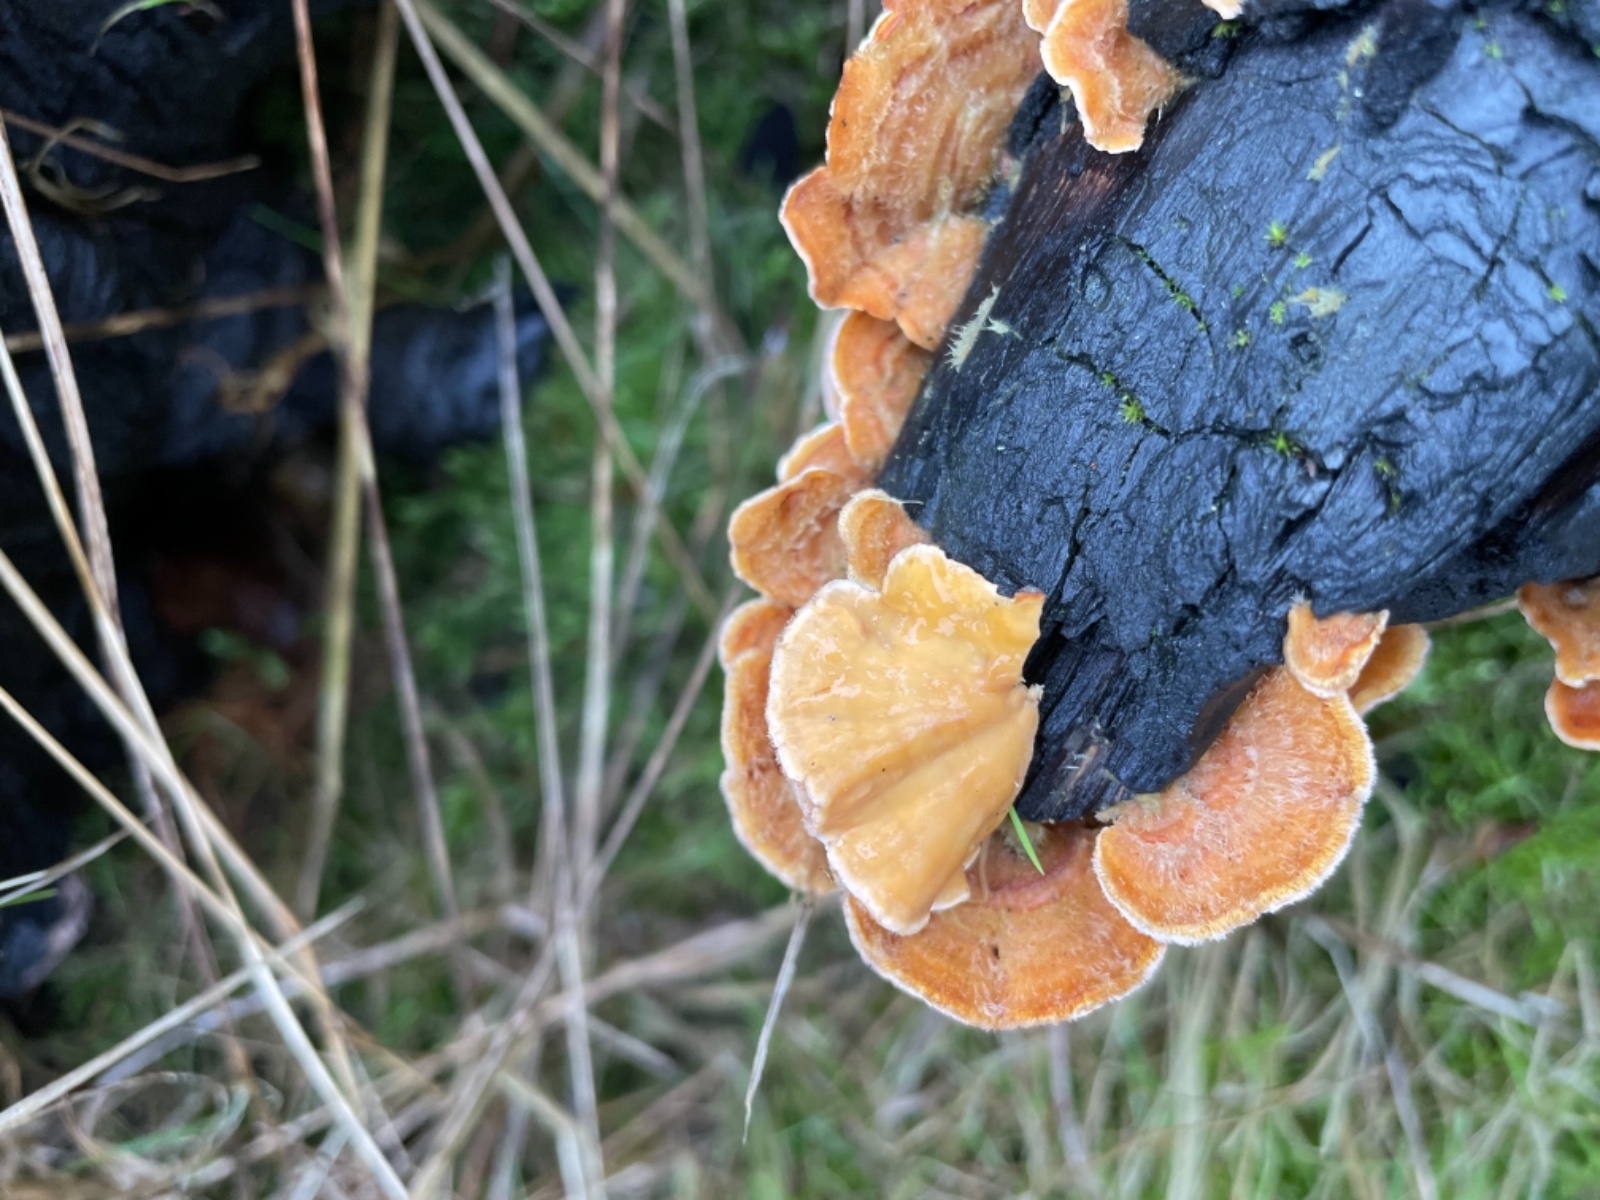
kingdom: Fungi
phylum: Basidiomycota
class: Agaricomycetes
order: Russulales
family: Stereaceae
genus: Stereum
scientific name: Stereum hirsutum
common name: håret lædersvamp
